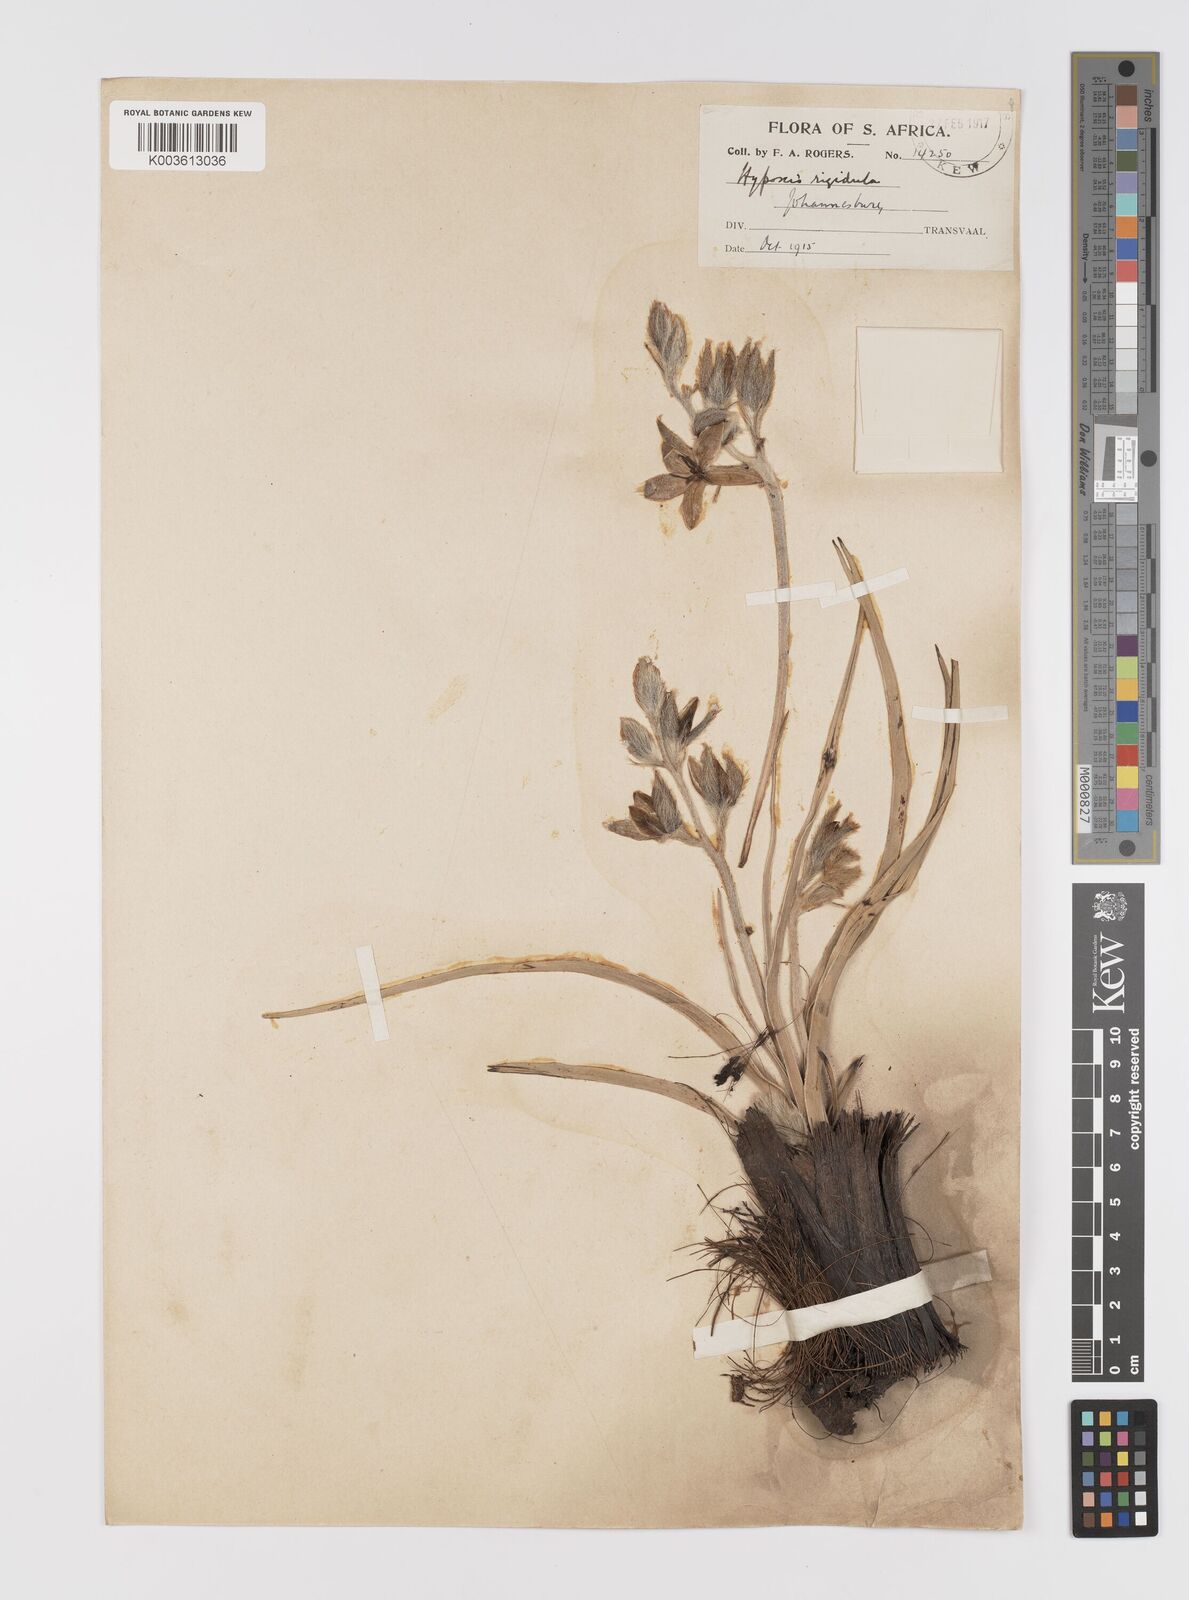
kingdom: Plantae
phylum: Tracheophyta
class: Liliopsida
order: Asparagales
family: Hypoxidaceae
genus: Hypoxis
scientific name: Hypoxis obtusa
